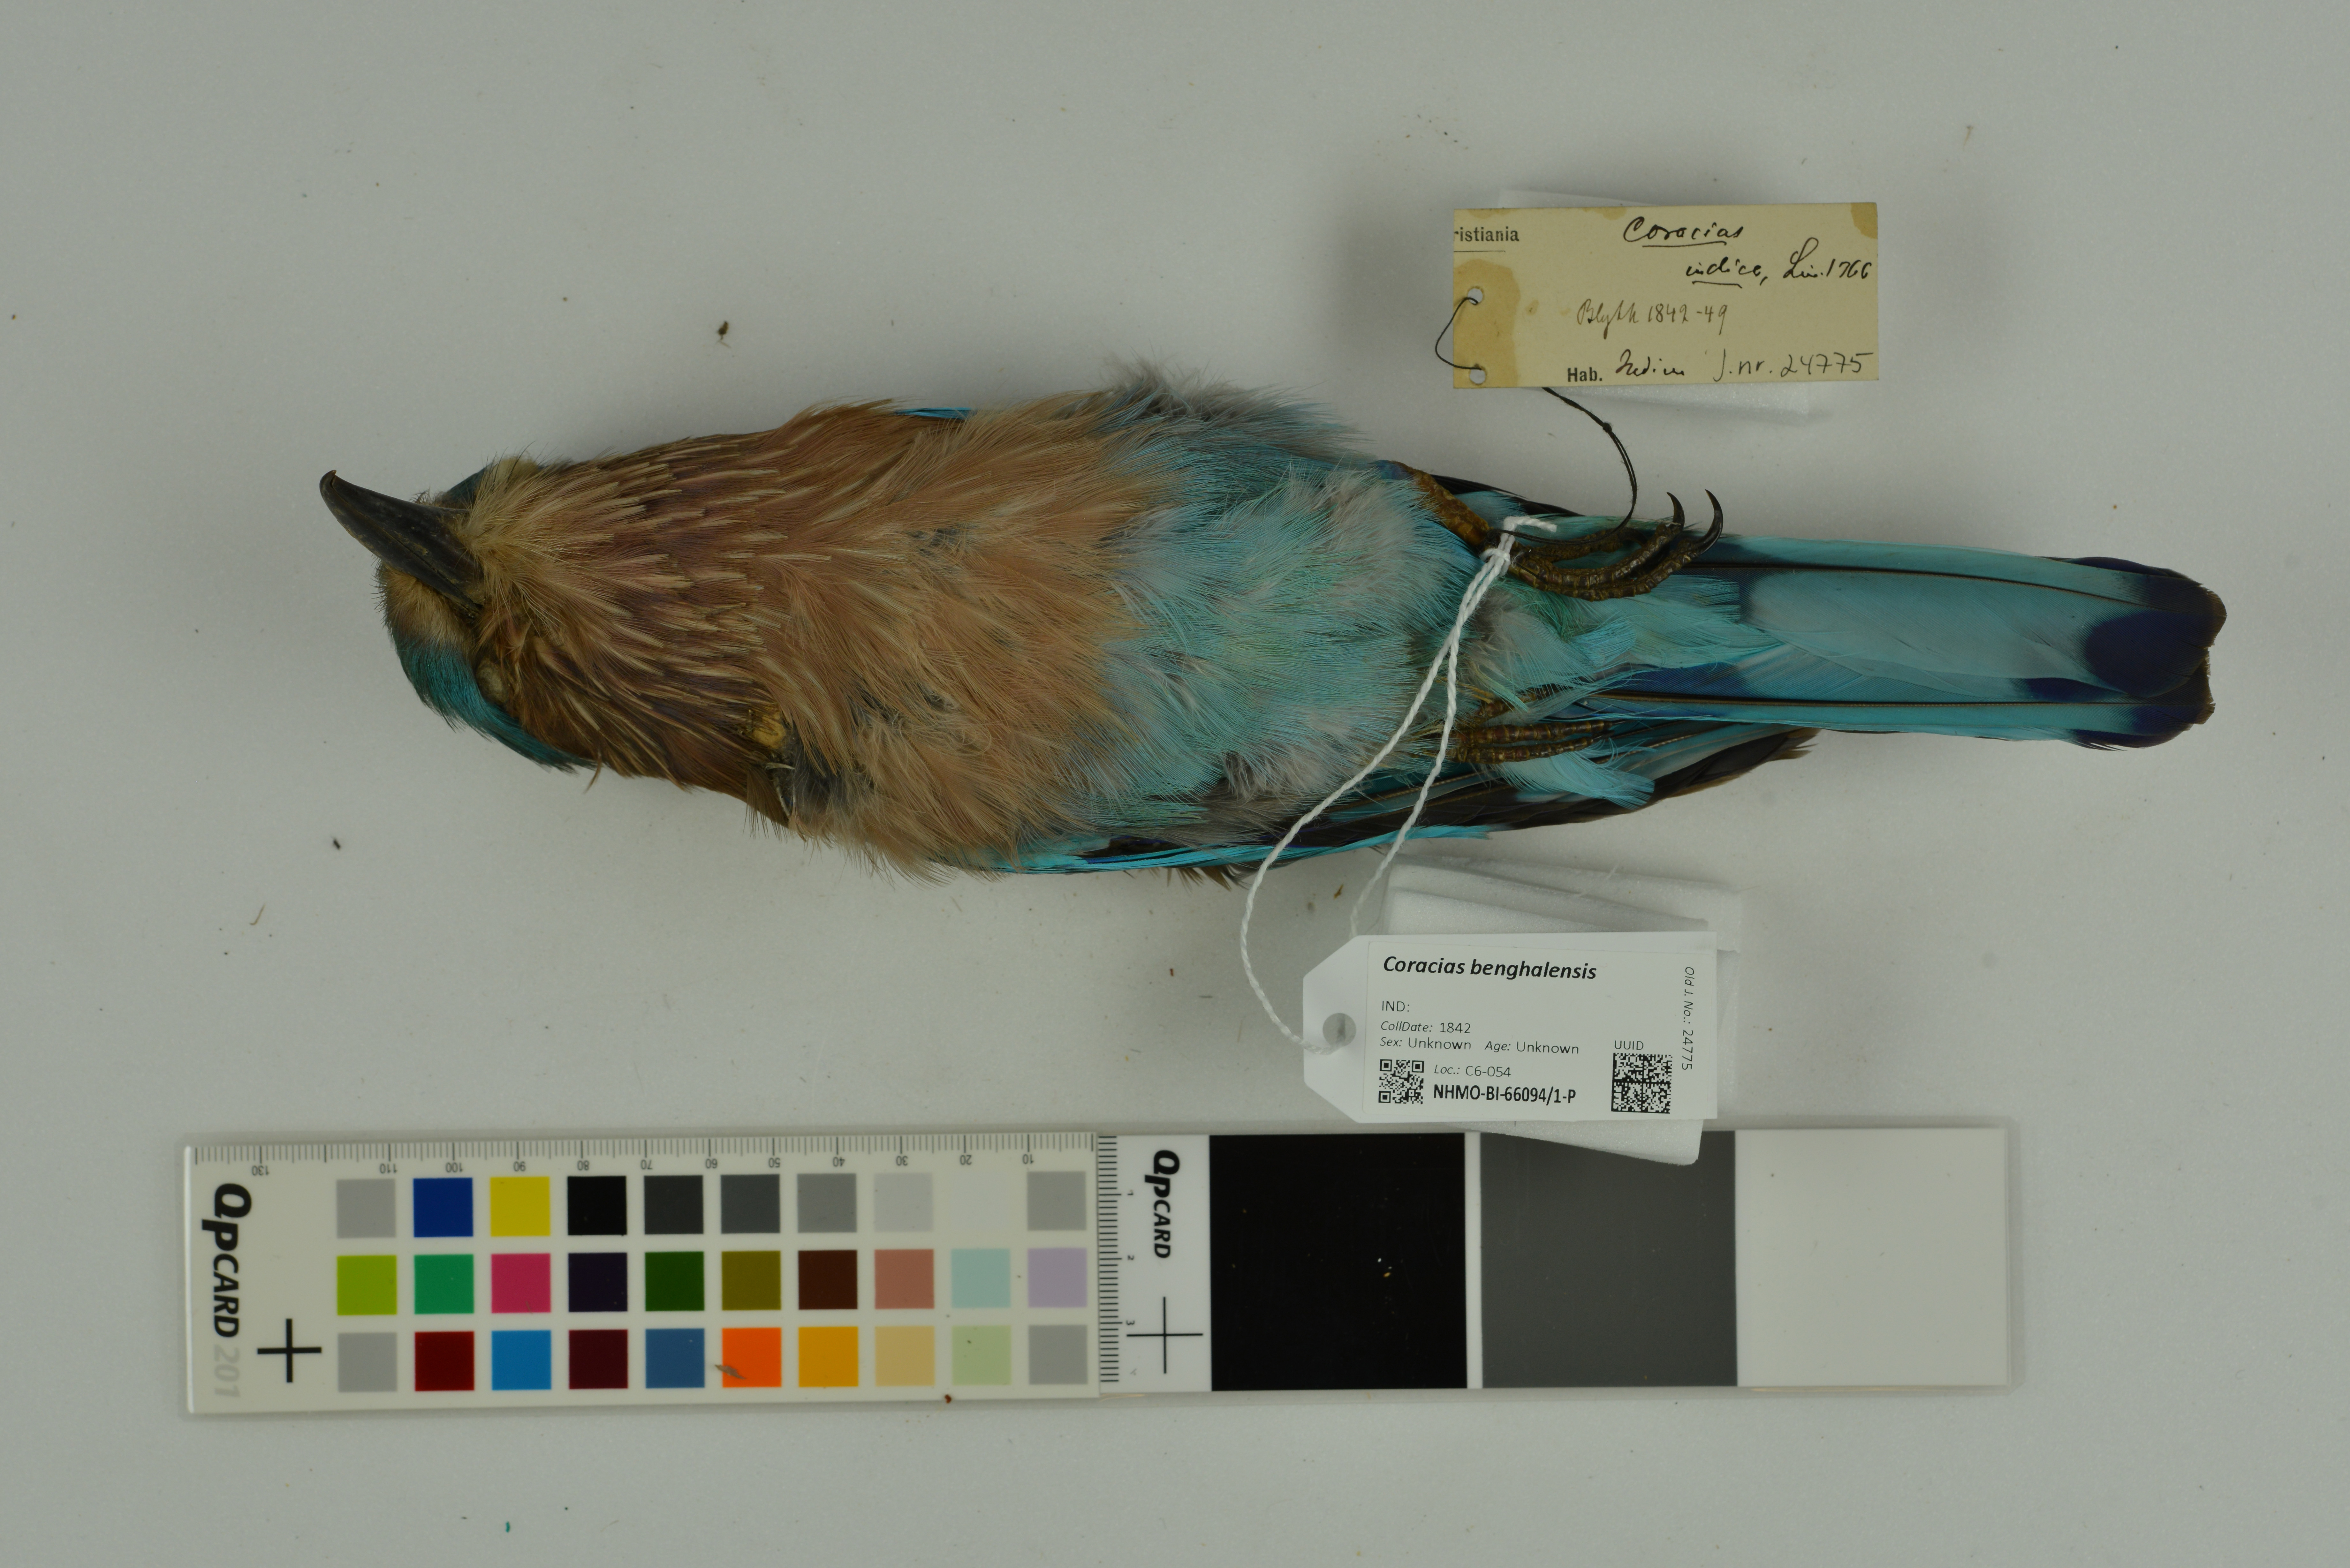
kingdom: Animalia
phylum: Chordata
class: Aves
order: Coraciiformes
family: Coraciidae
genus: Coracias
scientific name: Coracias benghalensis
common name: Indian roller
